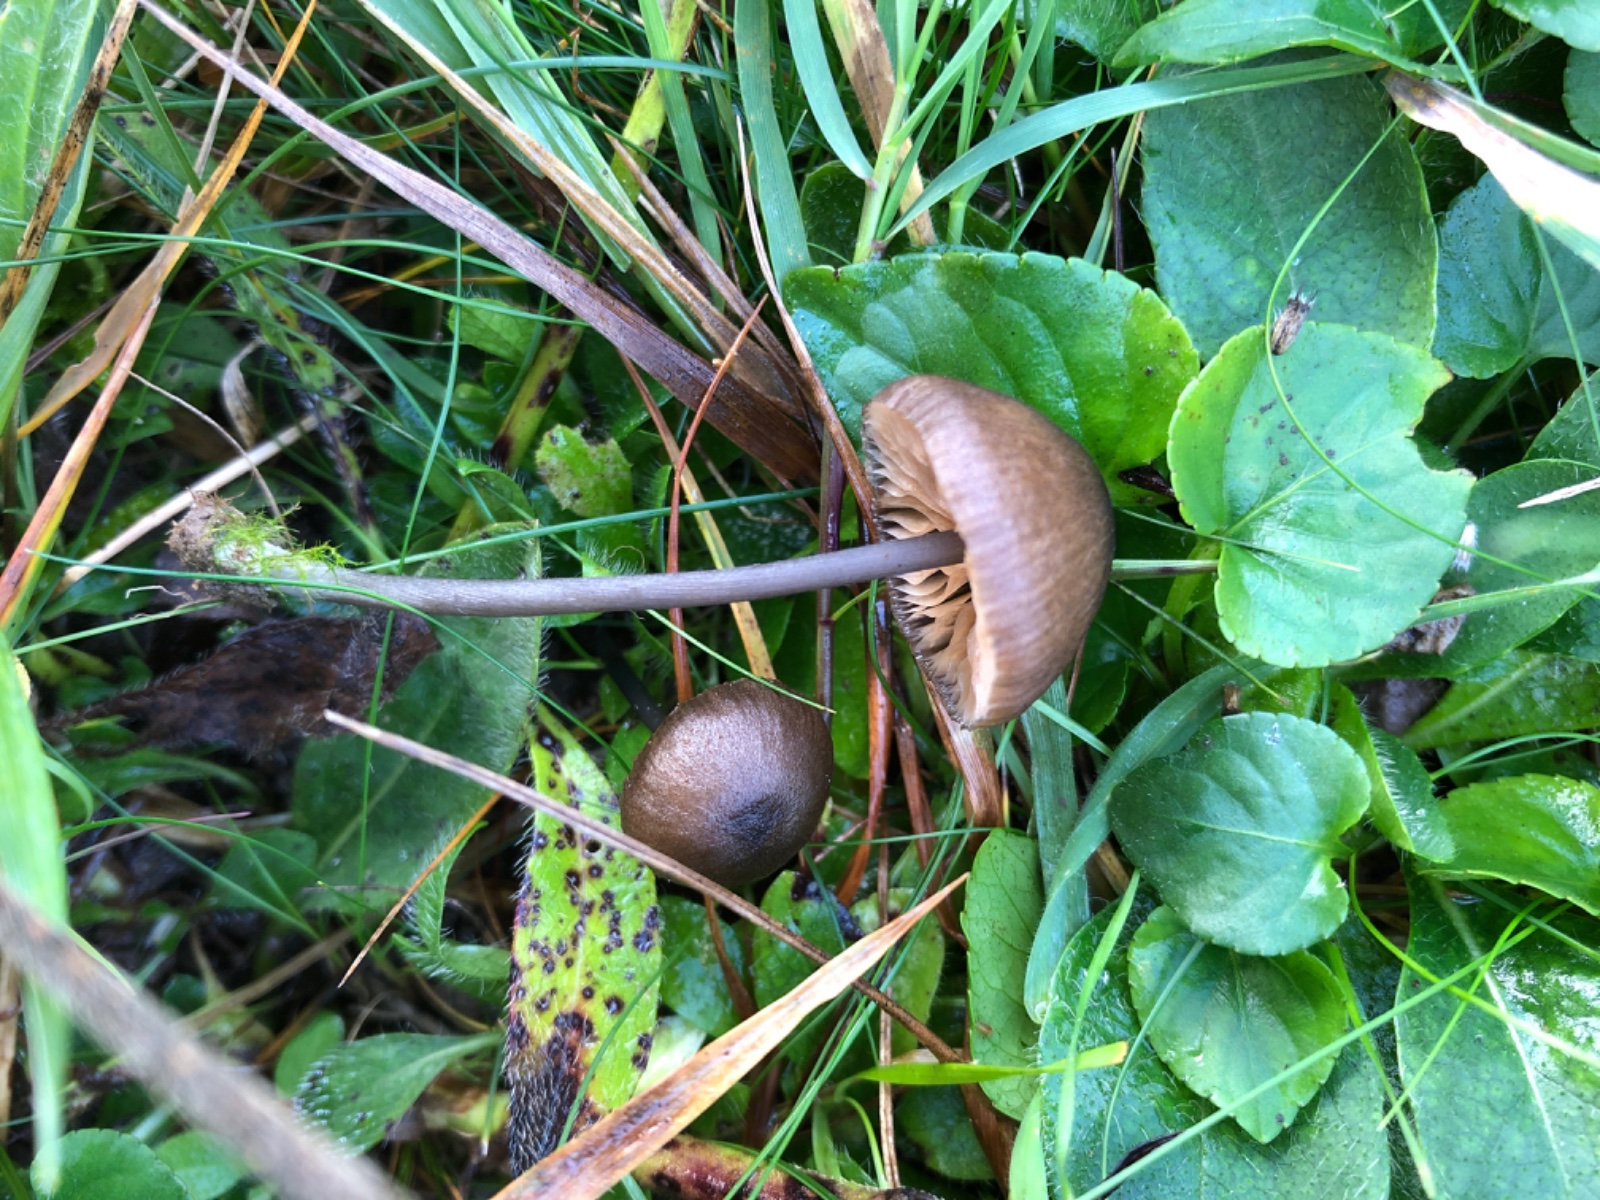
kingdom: Fungi
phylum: Basidiomycota
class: Agaricomycetes
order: Agaricales
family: Entolomataceae
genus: Entoloma
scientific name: Entoloma
